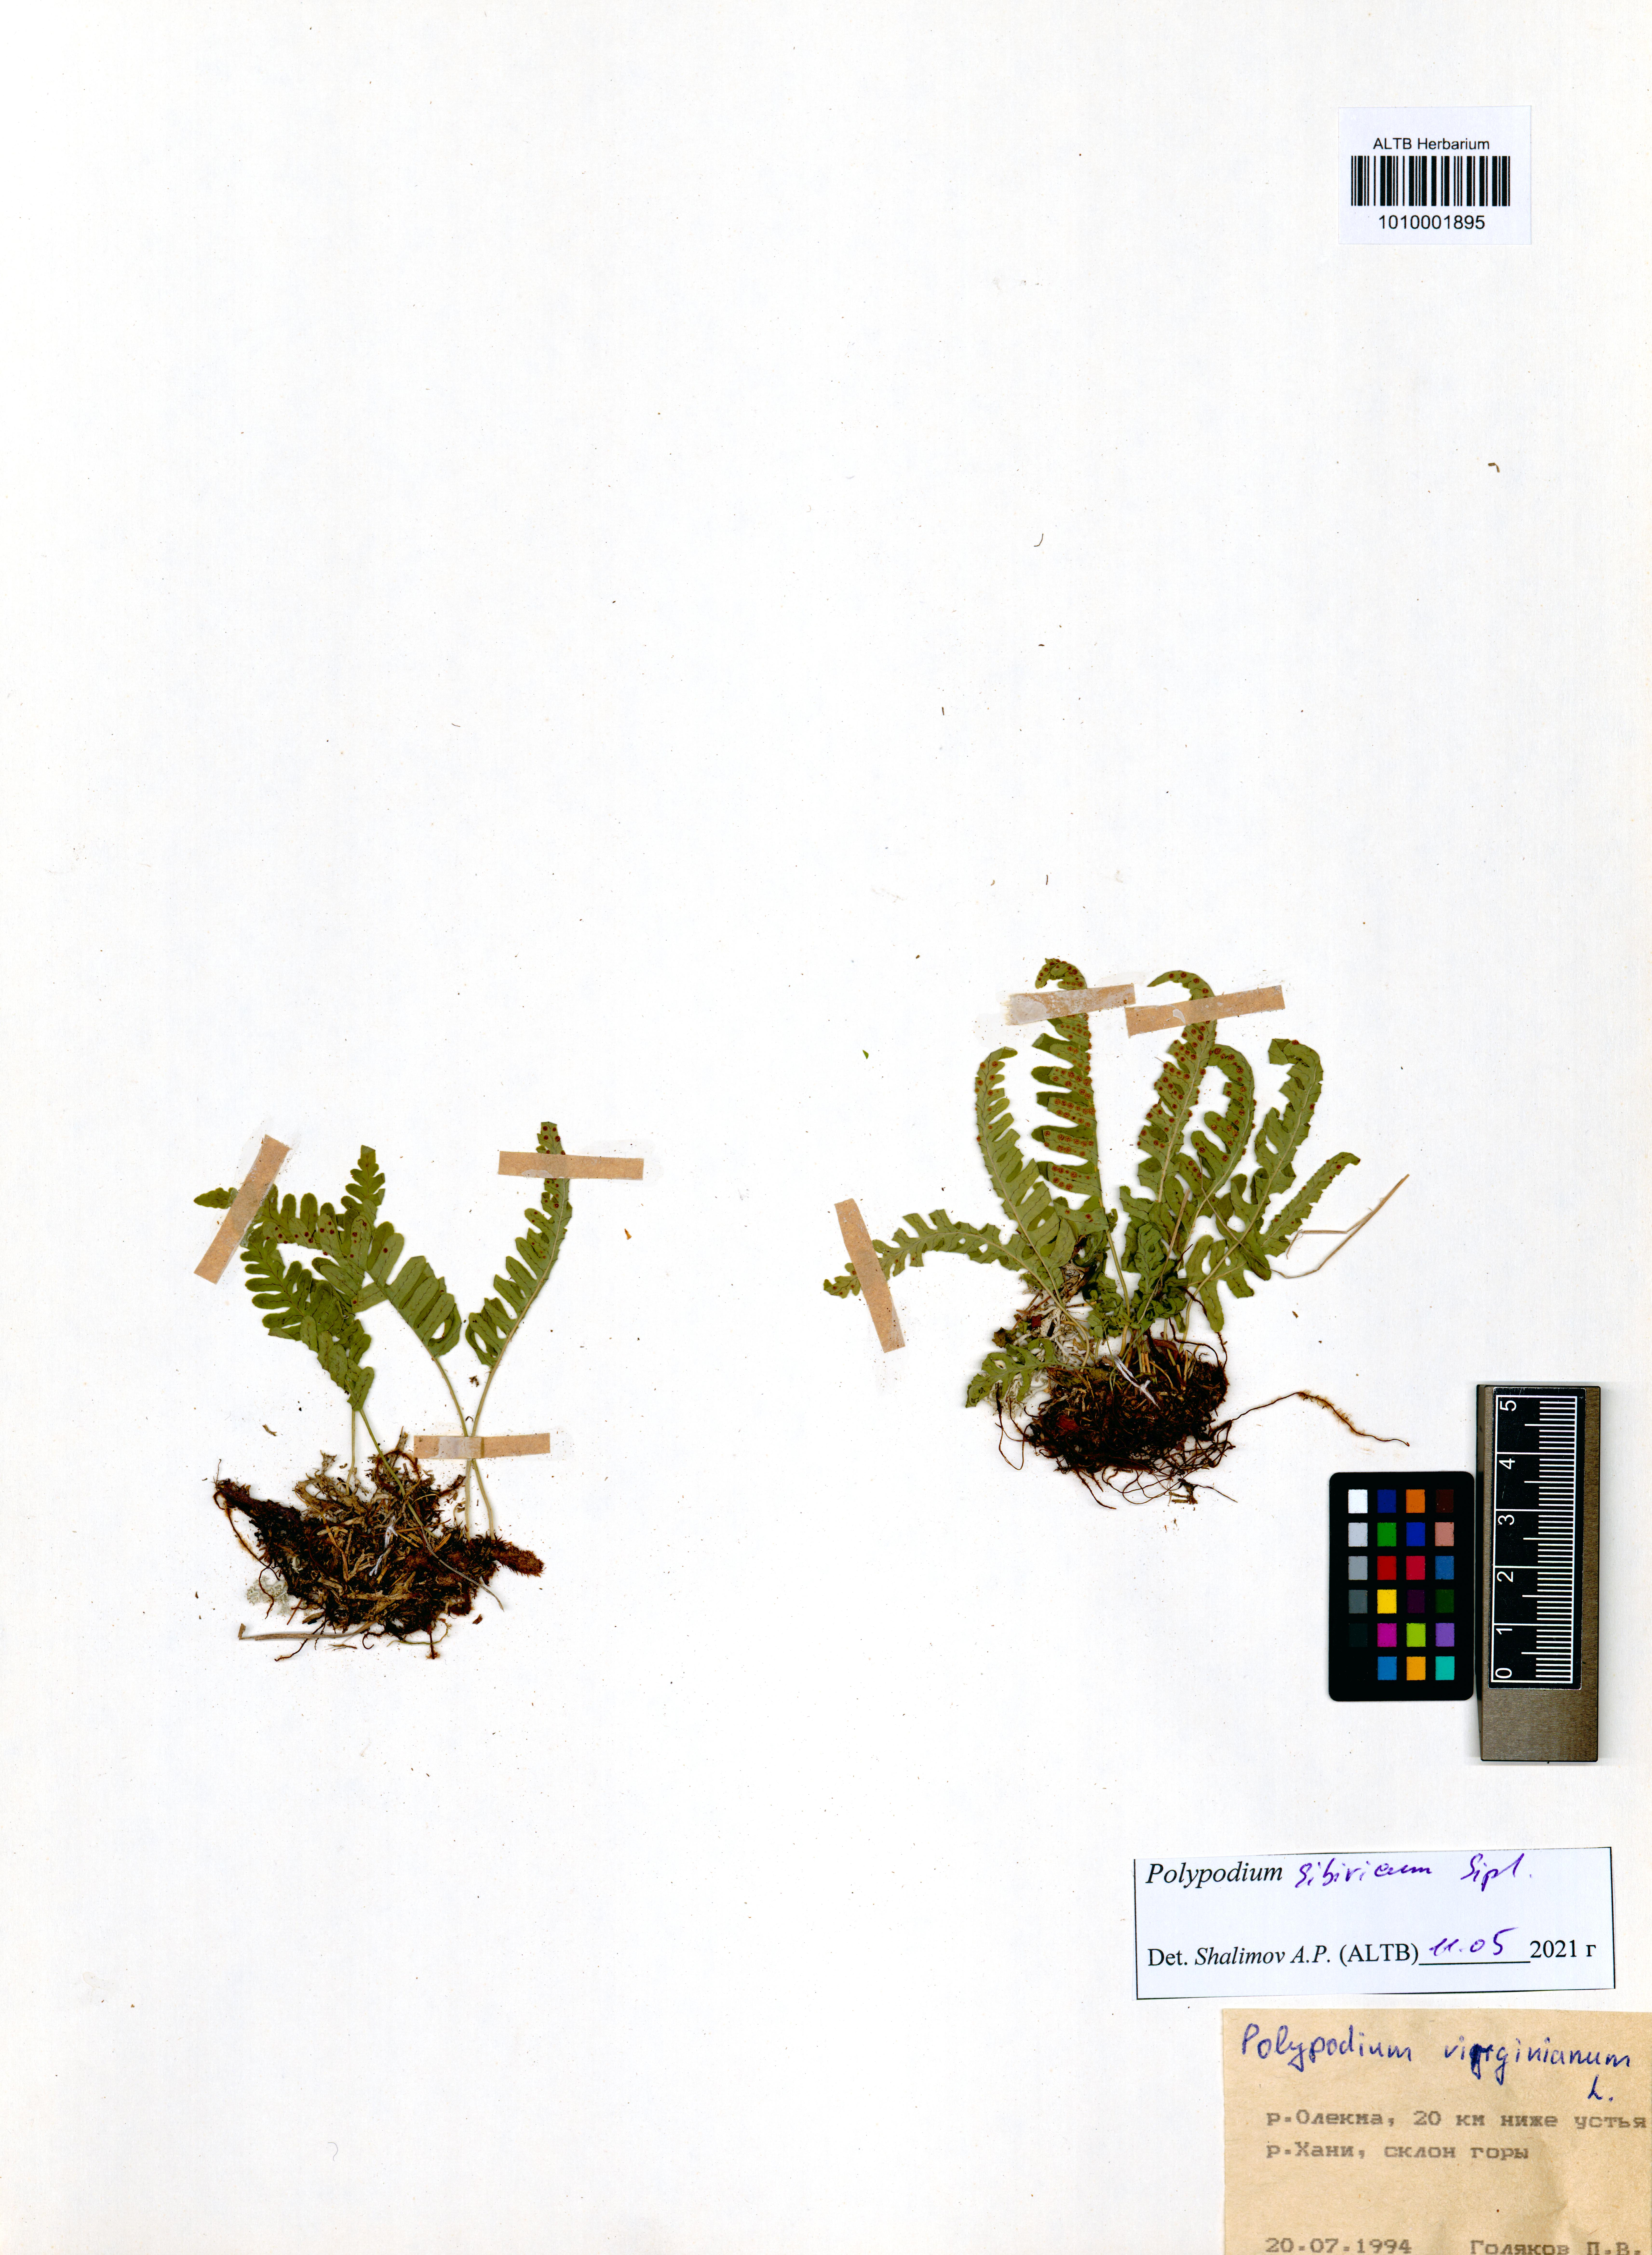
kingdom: Plantae
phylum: Tracheophyta
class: Polypodiopsida
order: Polypodiales
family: Polypodiaceae
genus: Polypodium
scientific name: Polypodium sibiricum
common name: Siberian polypody
